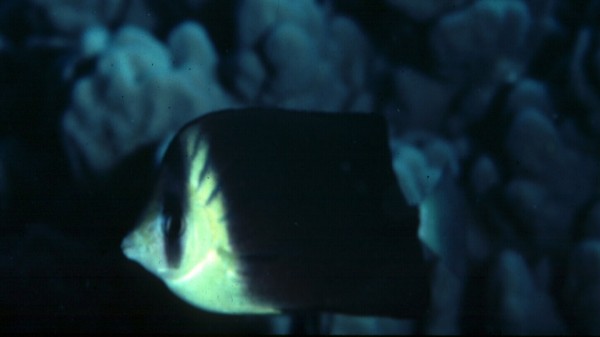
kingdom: Animalia
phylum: Chordata
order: Perciformes
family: Chaetodontidae
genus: Chaetodon
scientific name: Chaetodon blackburnii
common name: Blackburn's butterflyfish
